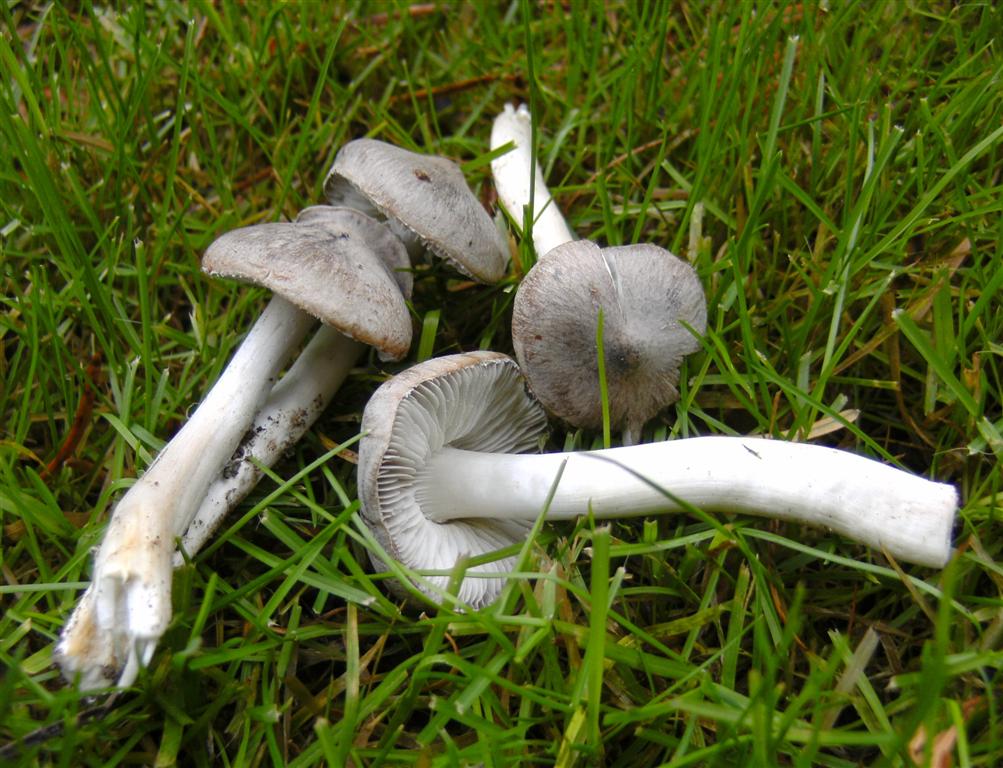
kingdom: Fungi
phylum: Basidiomycota
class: Agaricomycetes
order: Agaricales
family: Tricholomataceae
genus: Tricholoma
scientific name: Tricholoma terreum
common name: jordfarvet ridderhat
